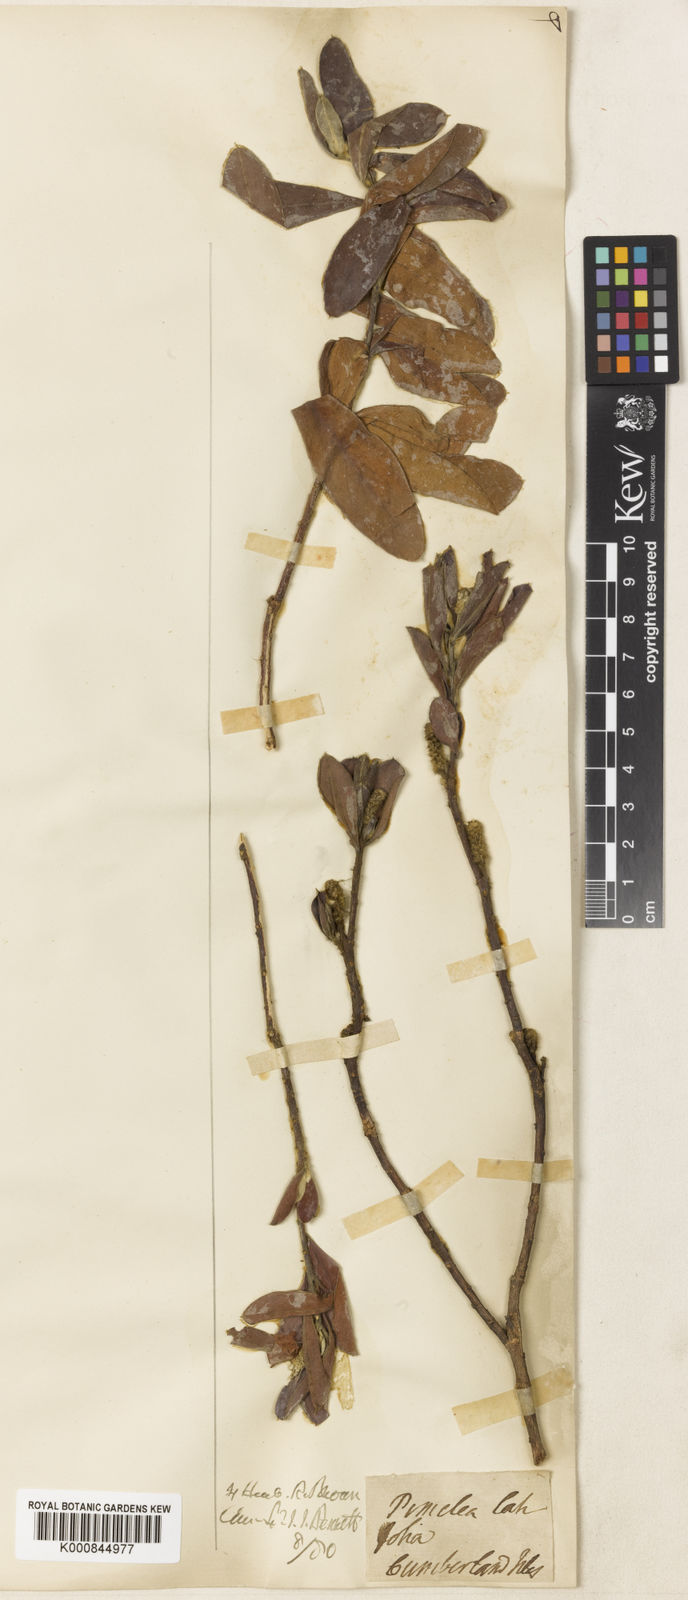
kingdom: Plantae
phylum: Tracheophyta
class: Magnoliopsida
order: Malvales
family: Thymelaeaceae
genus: Pimelea
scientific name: Pimelea latifolia
